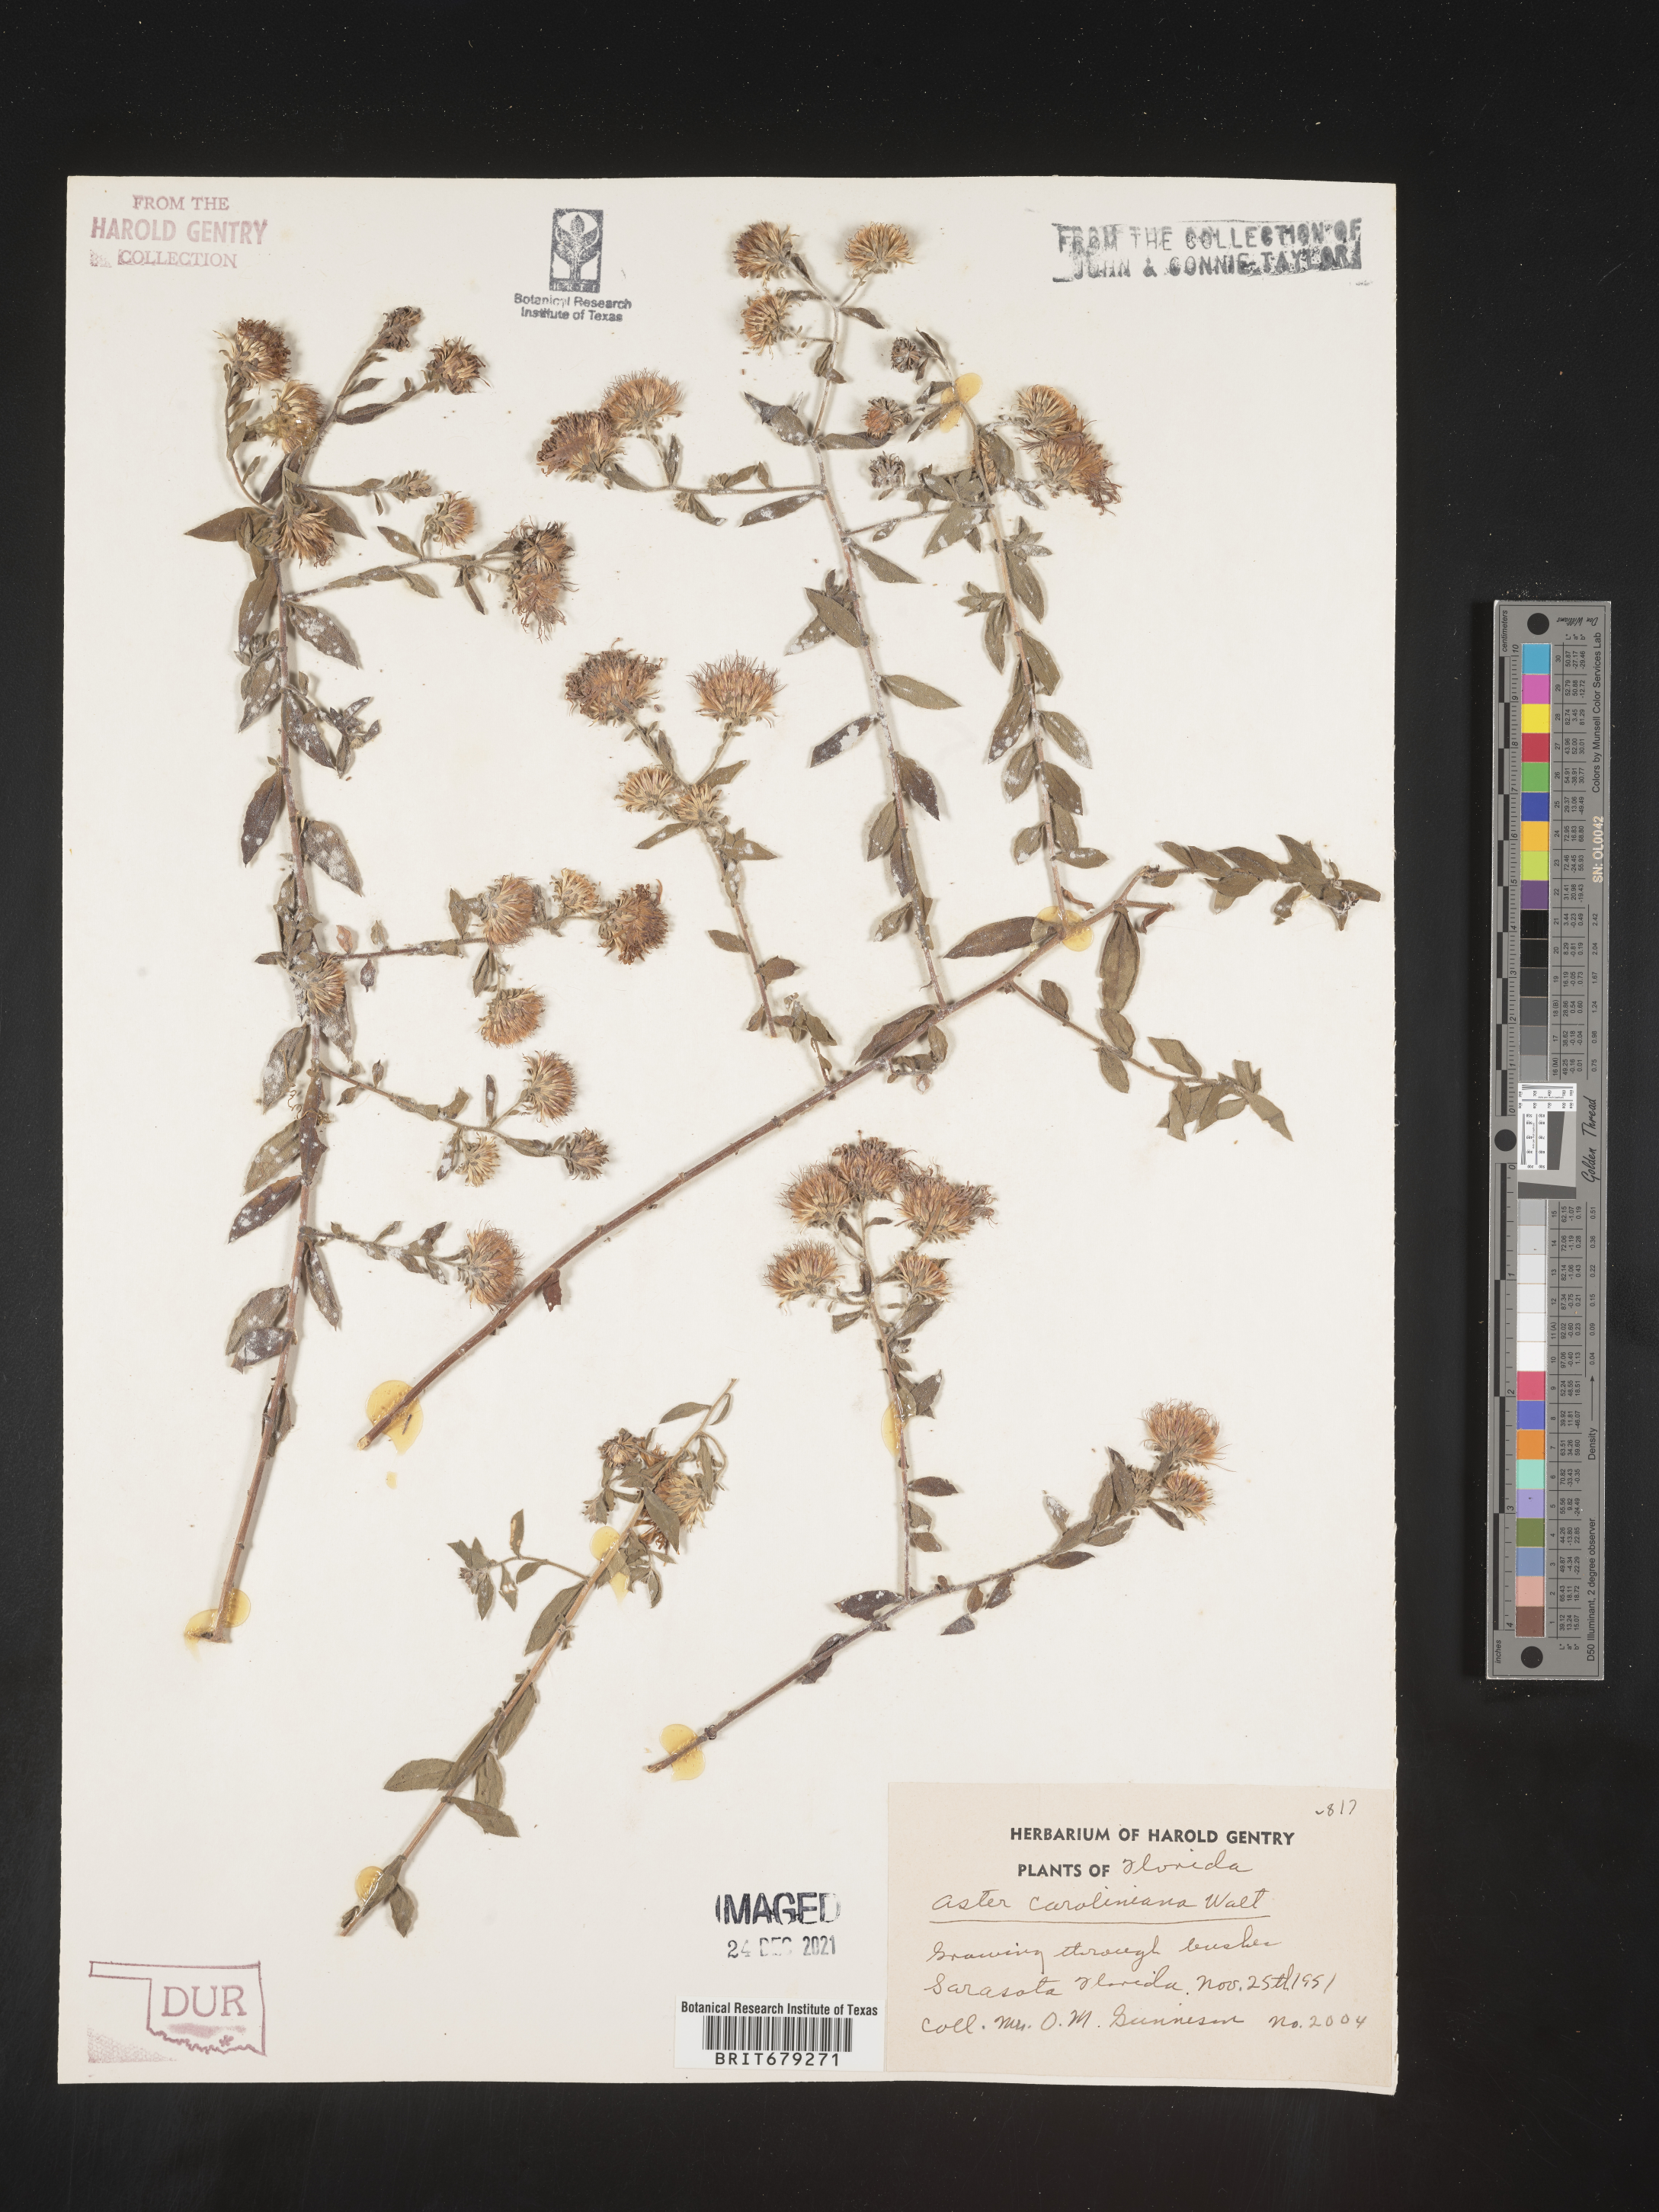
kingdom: Plantae
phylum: Tracheophyta
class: Magnoliopsida
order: Asterales
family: Asteraceae
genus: Ampelaster
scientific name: Ampelaster
